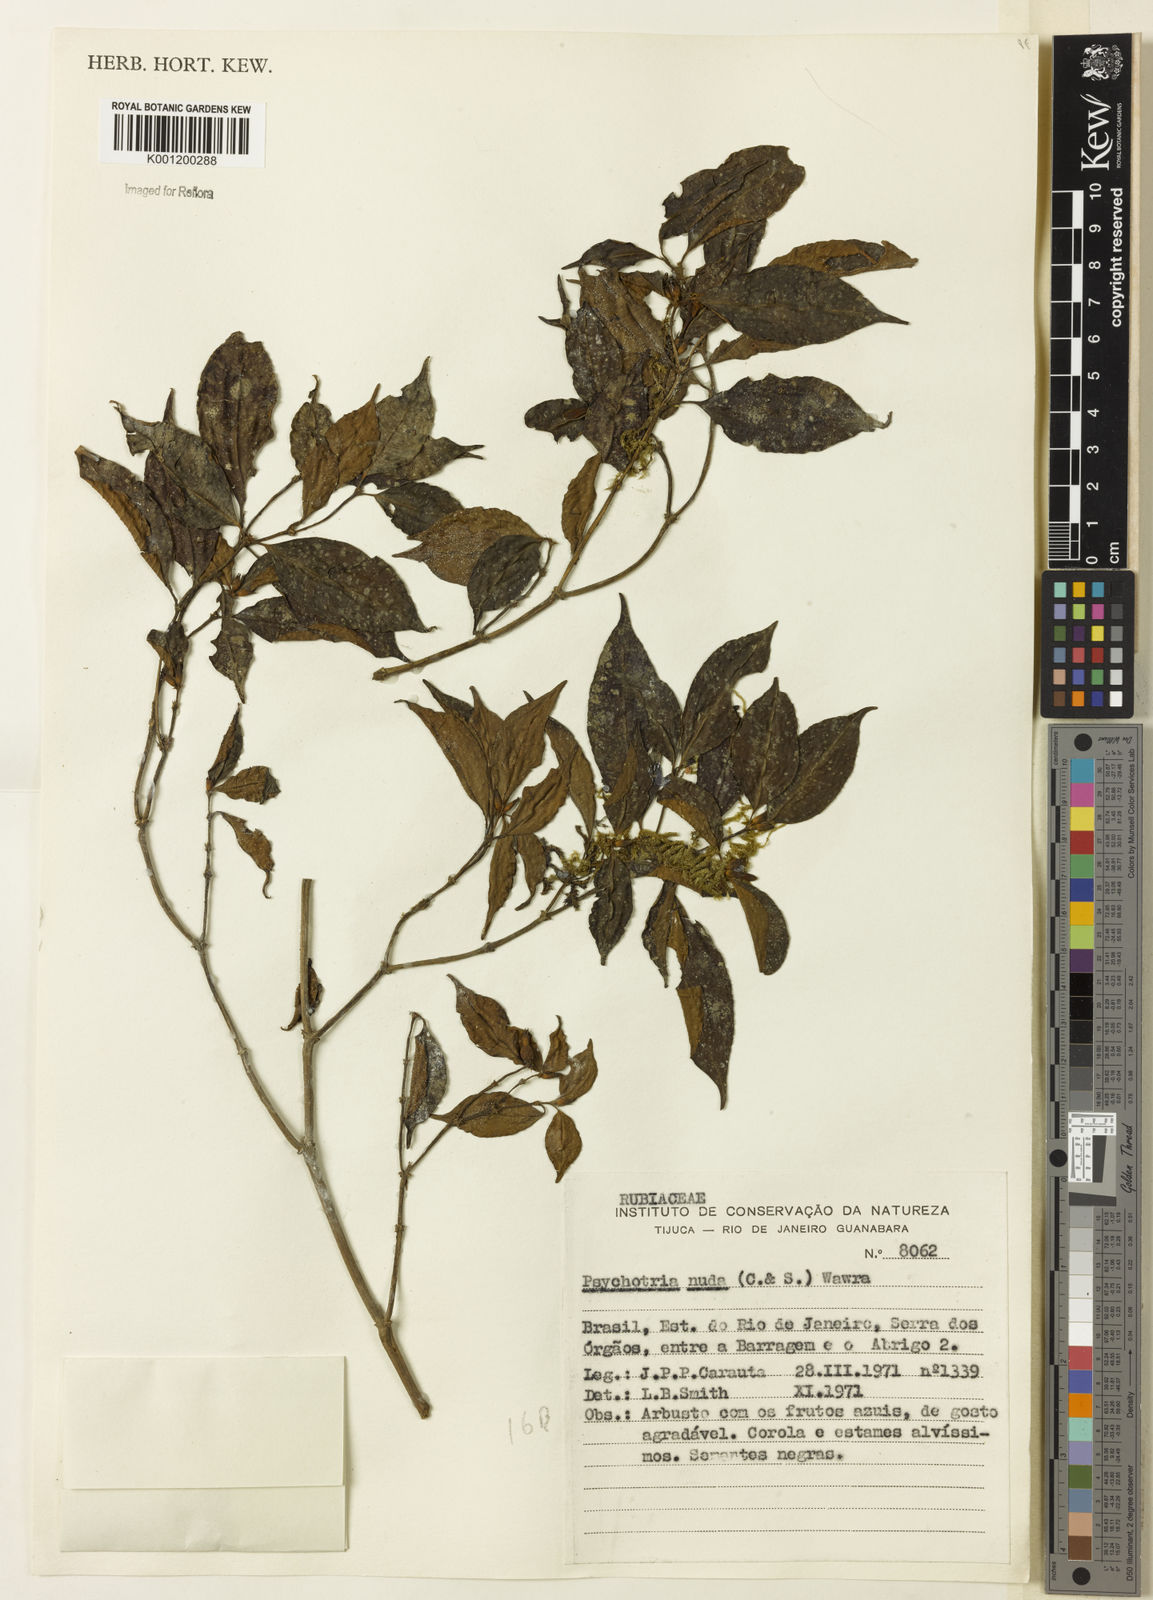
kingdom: Plantae
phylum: Tracheophyta
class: Magnoliopsida
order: Gentianales
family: Rubiaceae
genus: Psychotria
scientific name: Psychotria nuda
